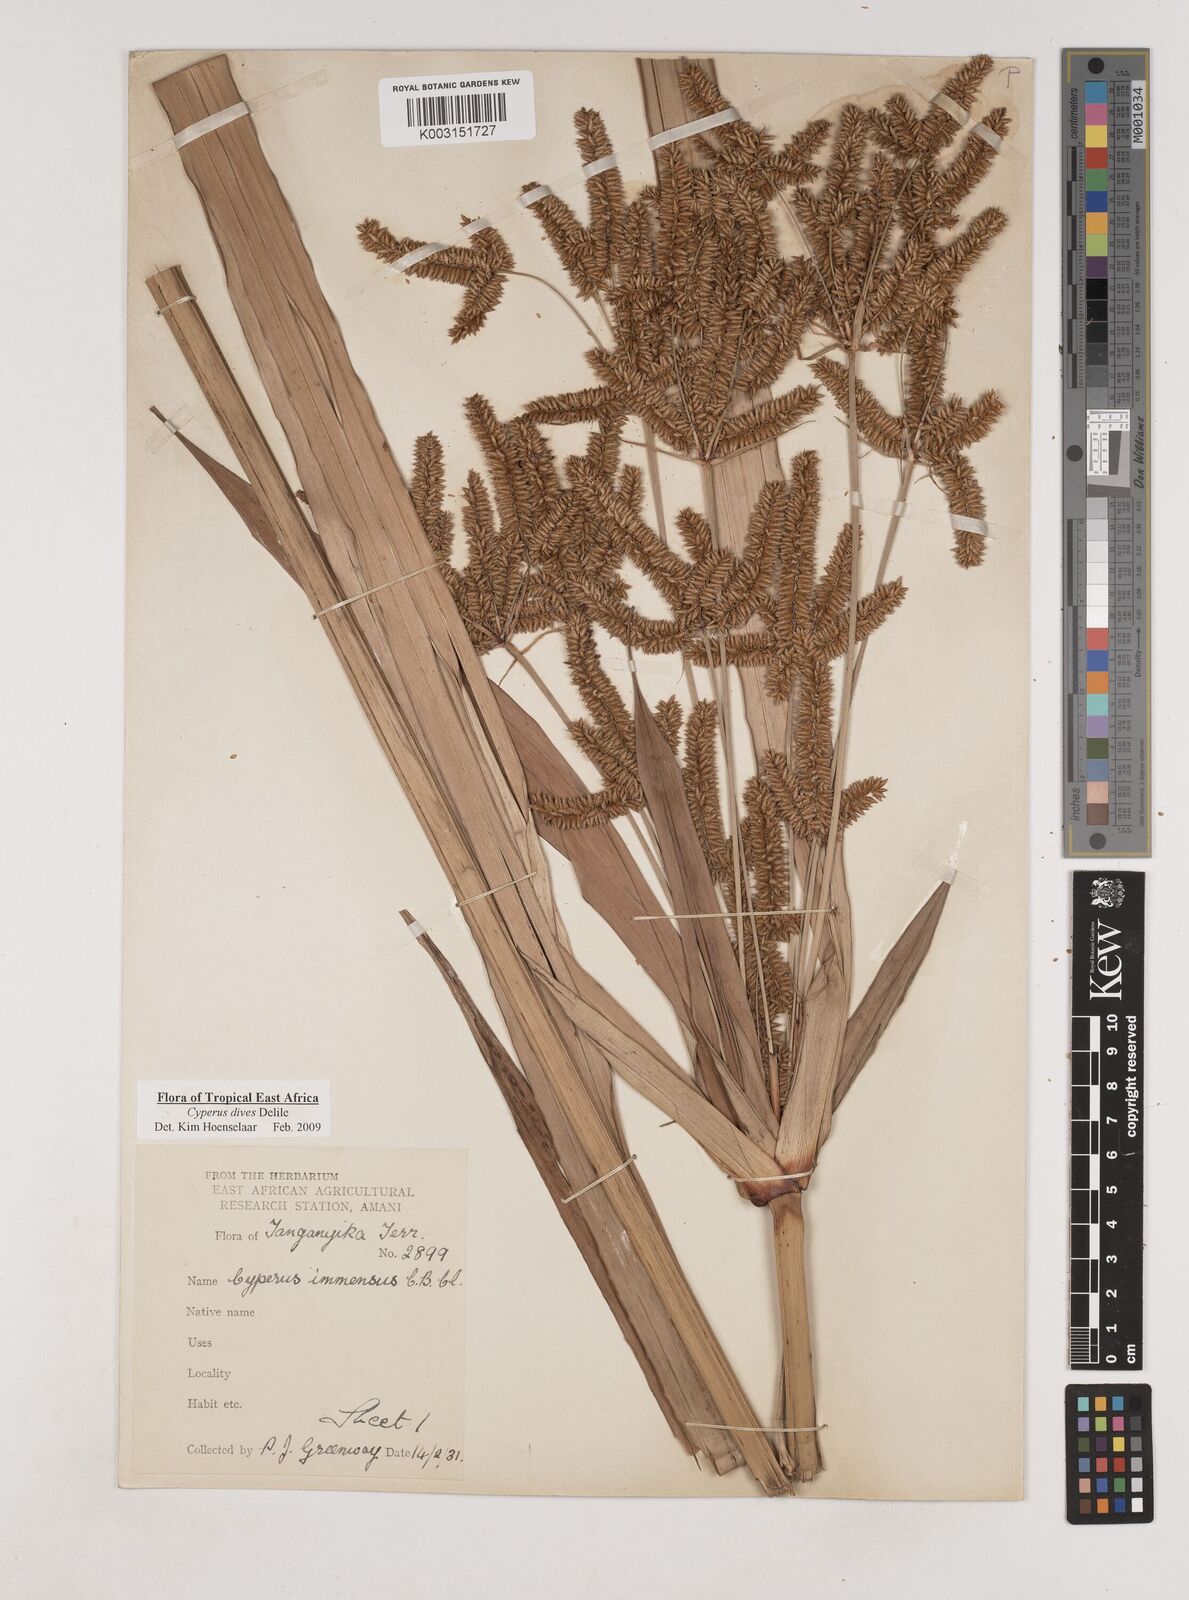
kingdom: Plantae
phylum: Tracheophyta
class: Liliopsida
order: Poales
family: Cyperaceae
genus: Cyperus
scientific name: Cyperus dives
